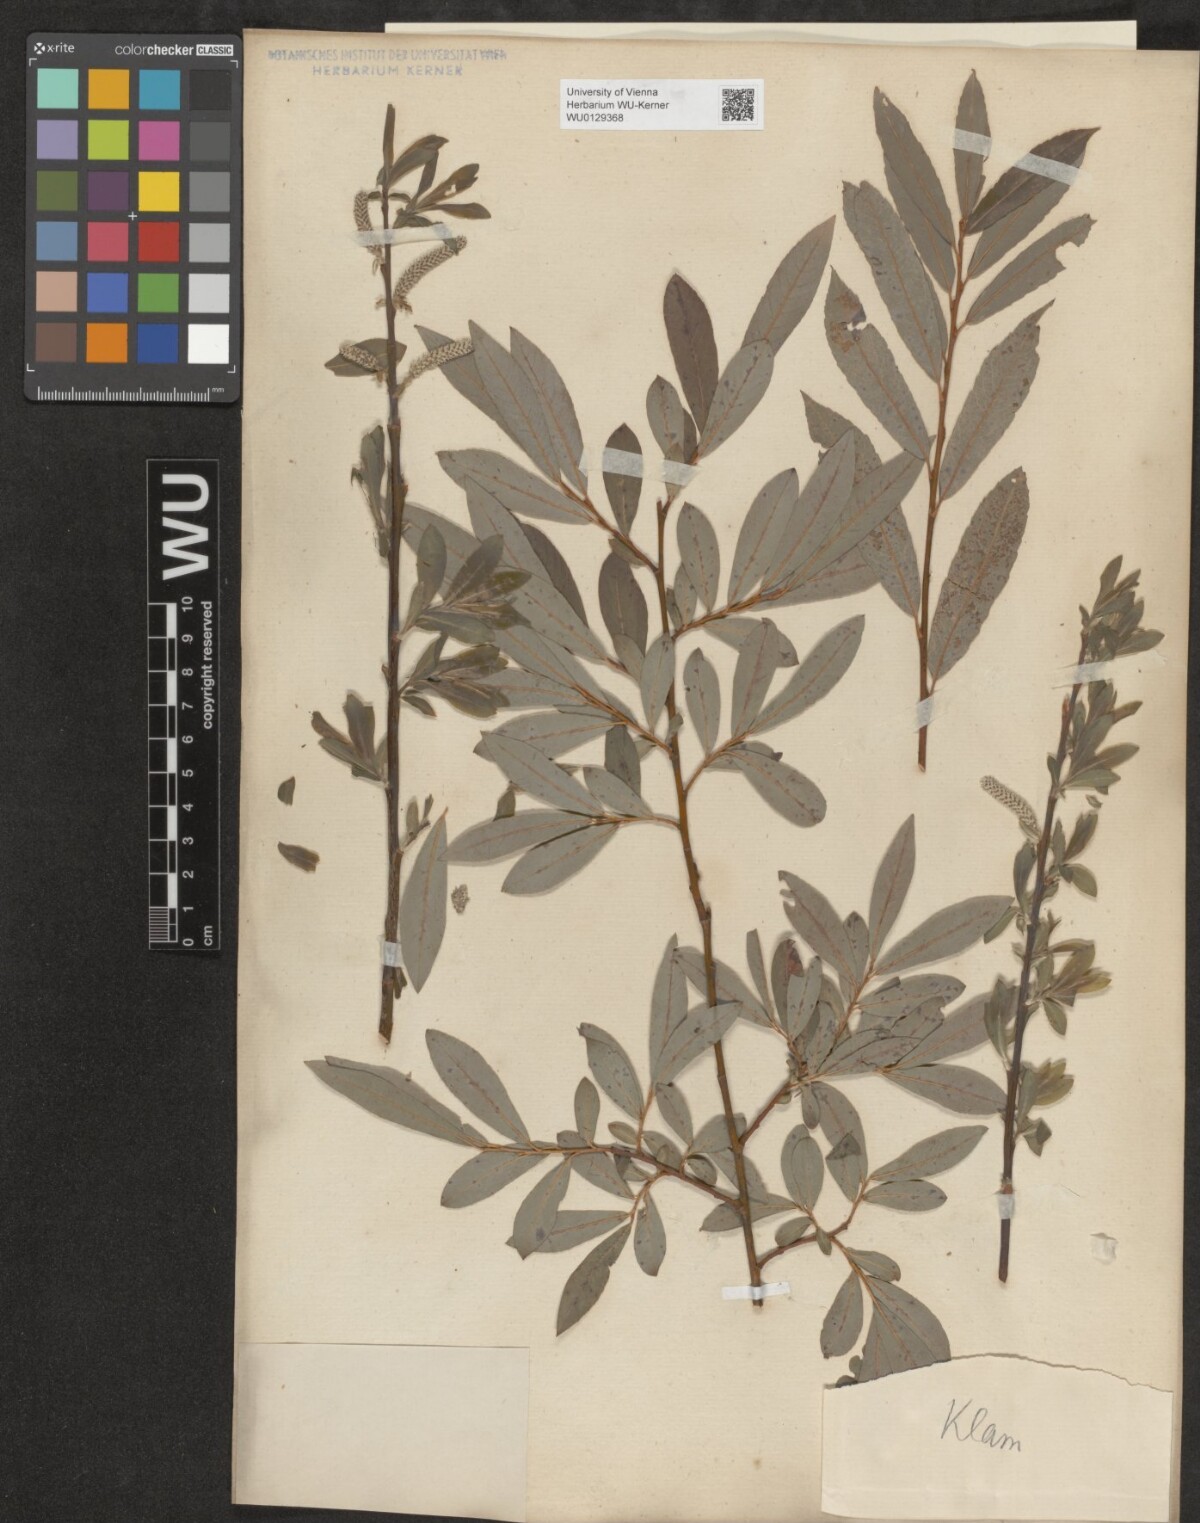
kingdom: Plantae
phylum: Tracheophyta
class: Magnoliopsida
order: Malpighiales
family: Salicaceae
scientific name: Salicaceae
